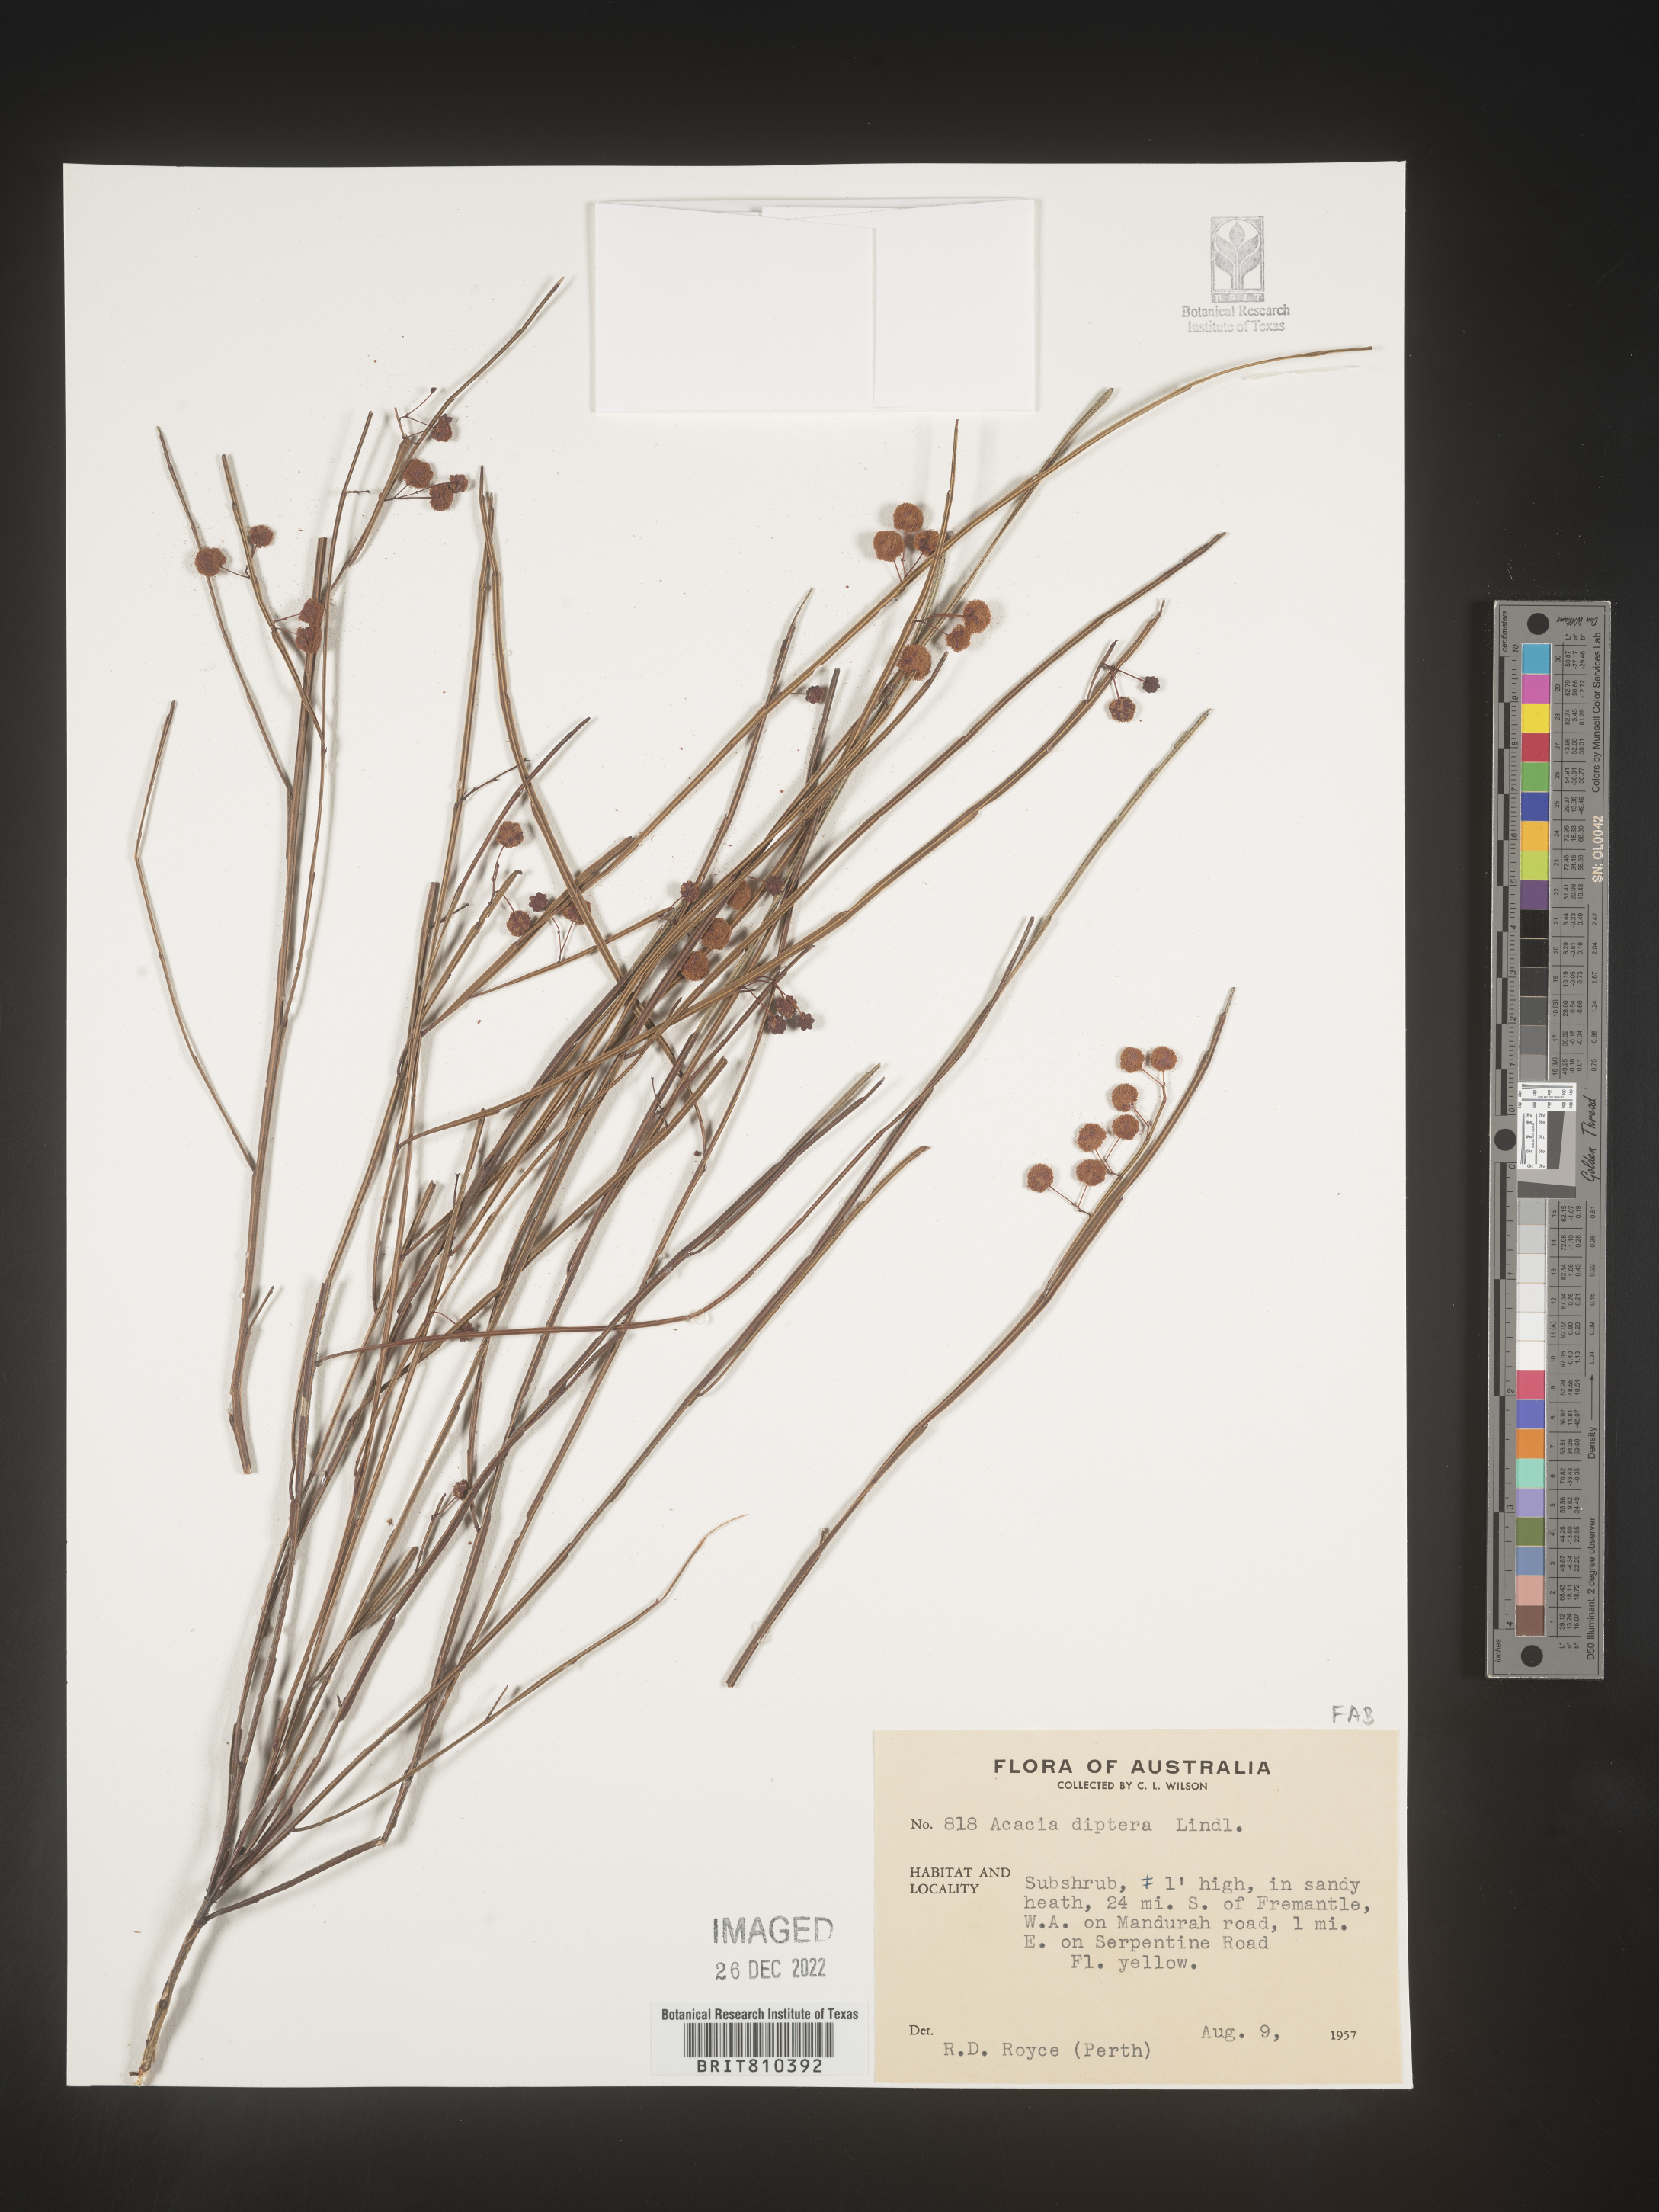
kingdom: Plantae
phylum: Tracheophyta
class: Magnoliopsida
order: Fabales
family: Fabaceae
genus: Acacia
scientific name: Acacia
